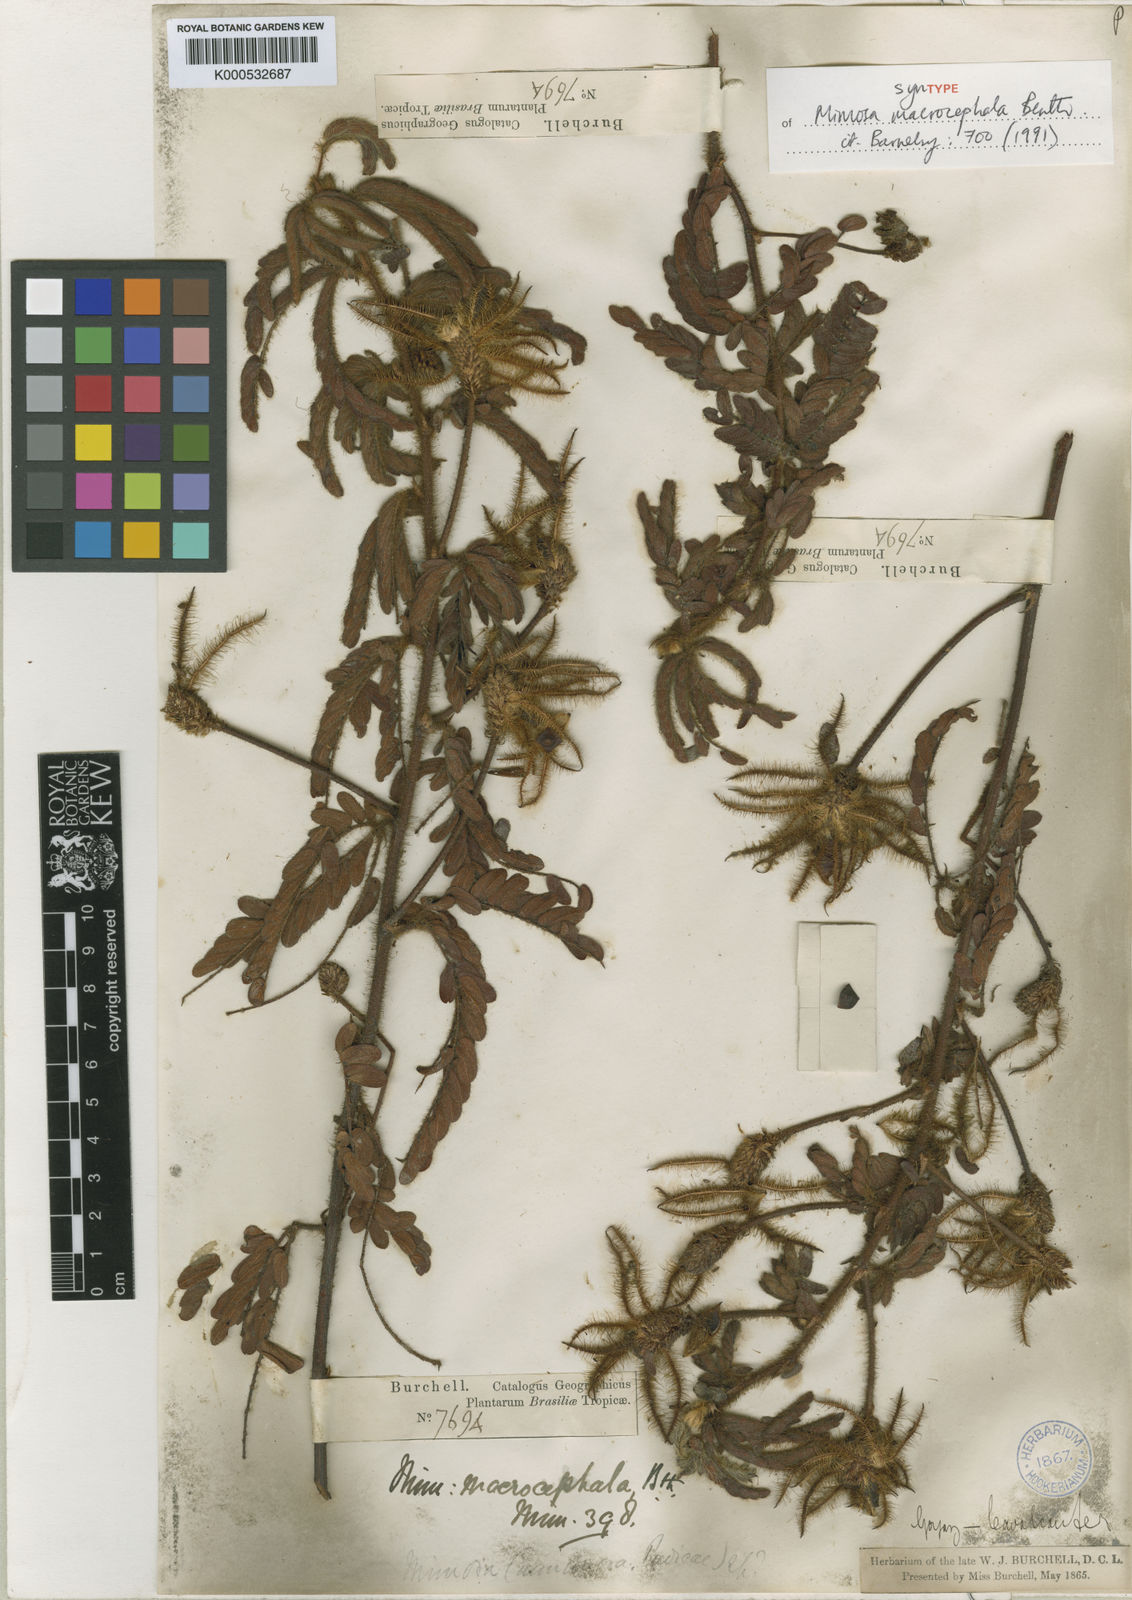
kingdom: Plantae
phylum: Tracheophyta
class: Magnoliopsida
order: Fabales
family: Fabaceae
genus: Mimosa
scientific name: Mimosa macrocephala
